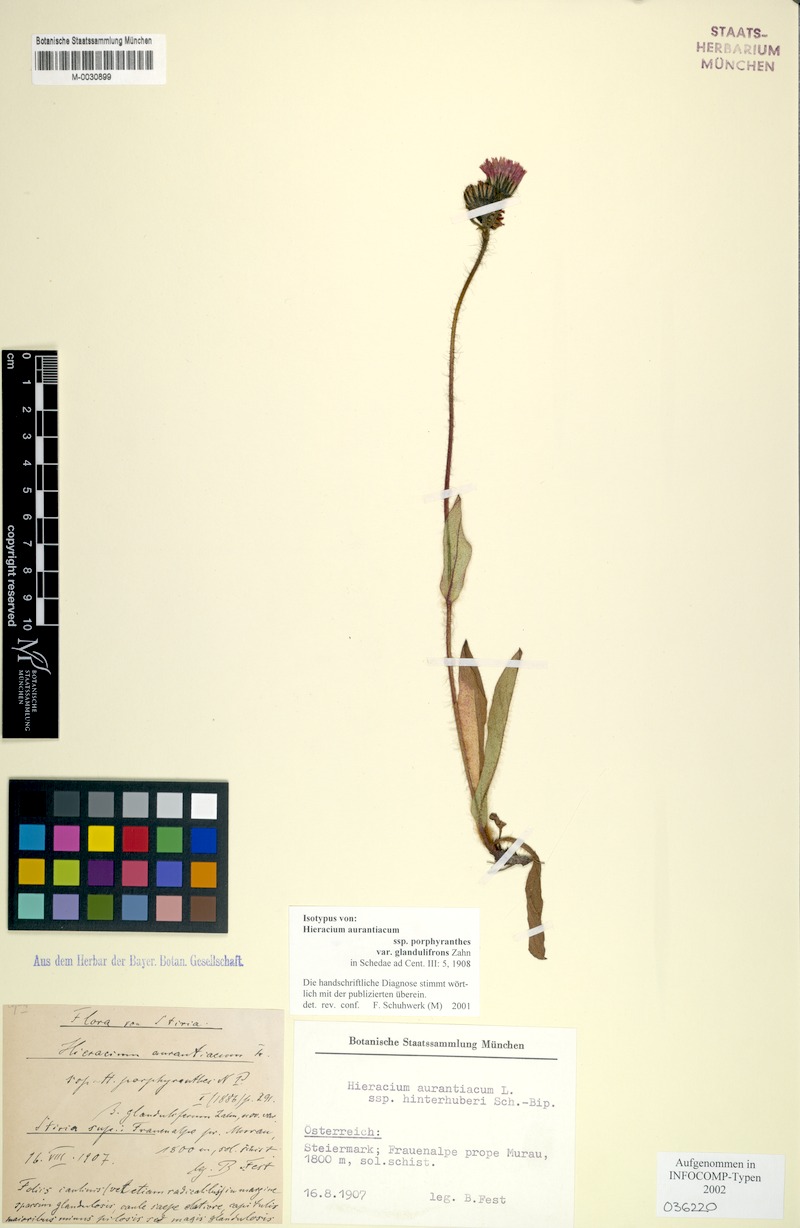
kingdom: Plantae
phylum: Tracheophyta
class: Magnoliopsida
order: Asterales
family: Asteraceae
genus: Pilosella
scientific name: Pilosella aurantiaca
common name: Fox-and-cubs
